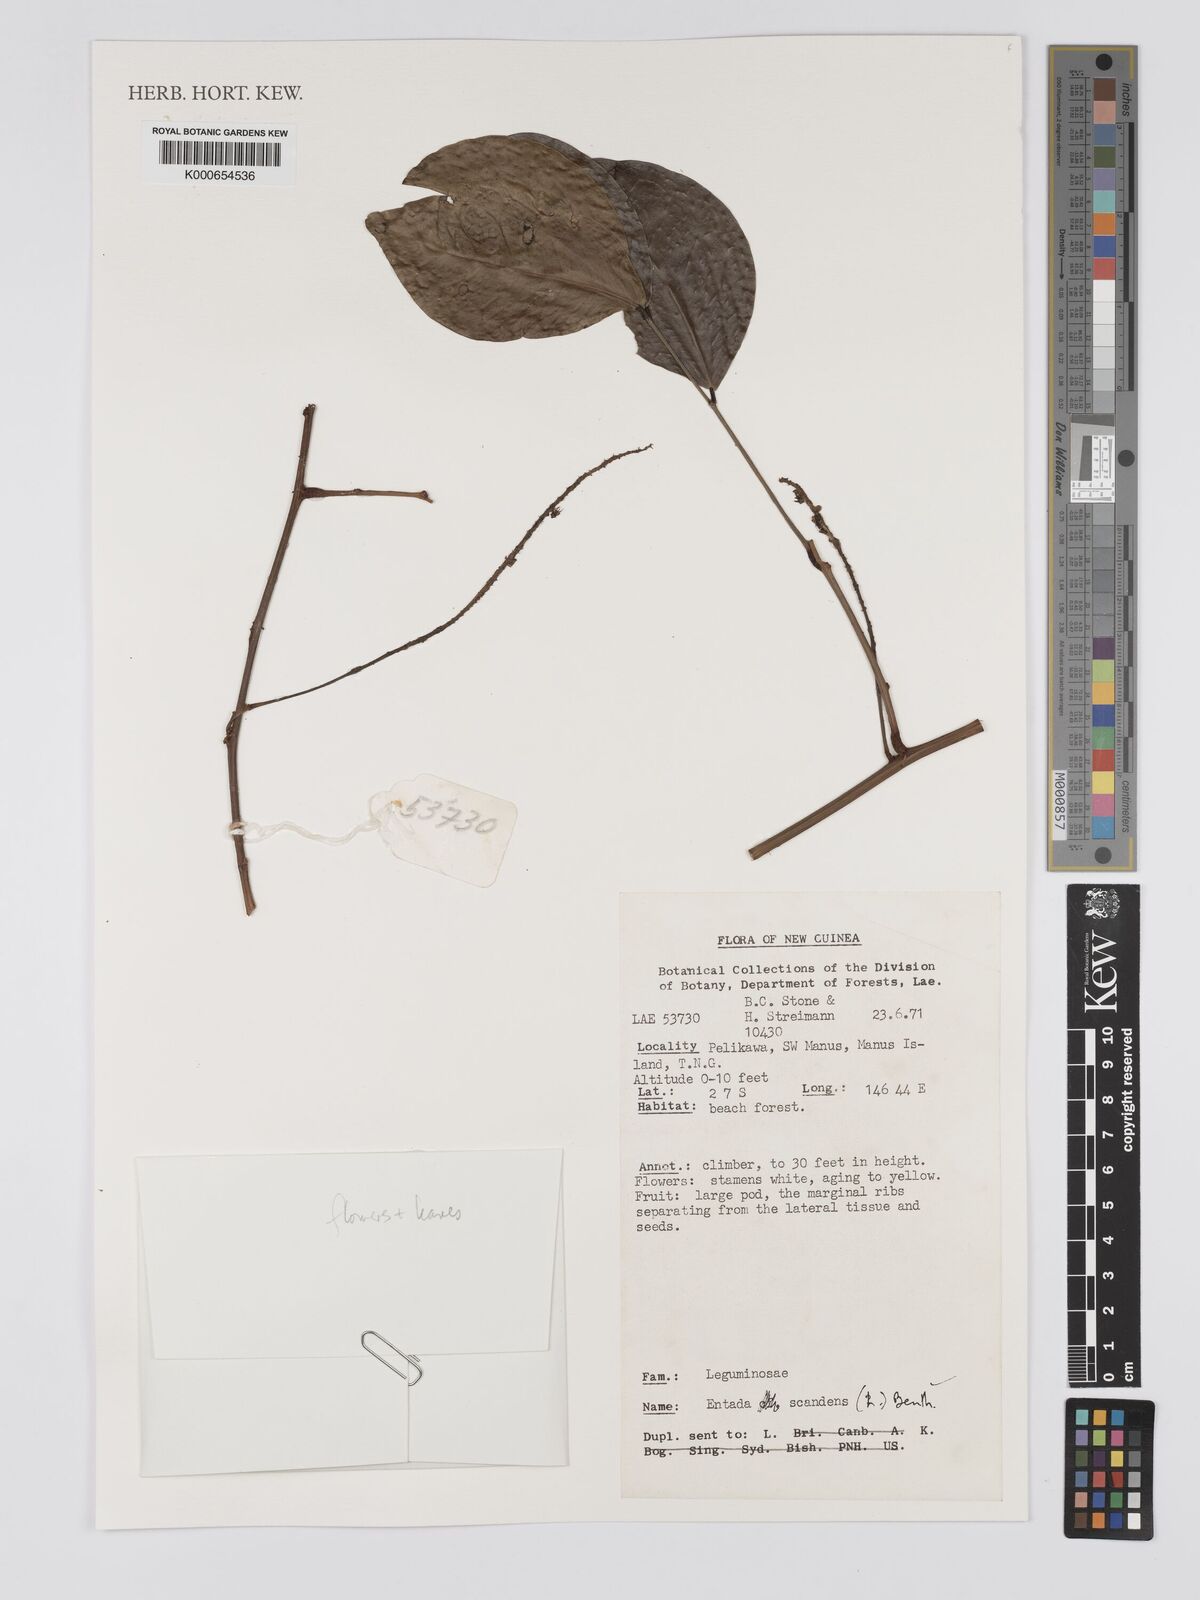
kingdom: Plantae
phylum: Tracheophyta
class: Magnoliopsida
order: Fabales
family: Fabaceae
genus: Entada
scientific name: Entada phaseoloides
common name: Matchbox-bean
